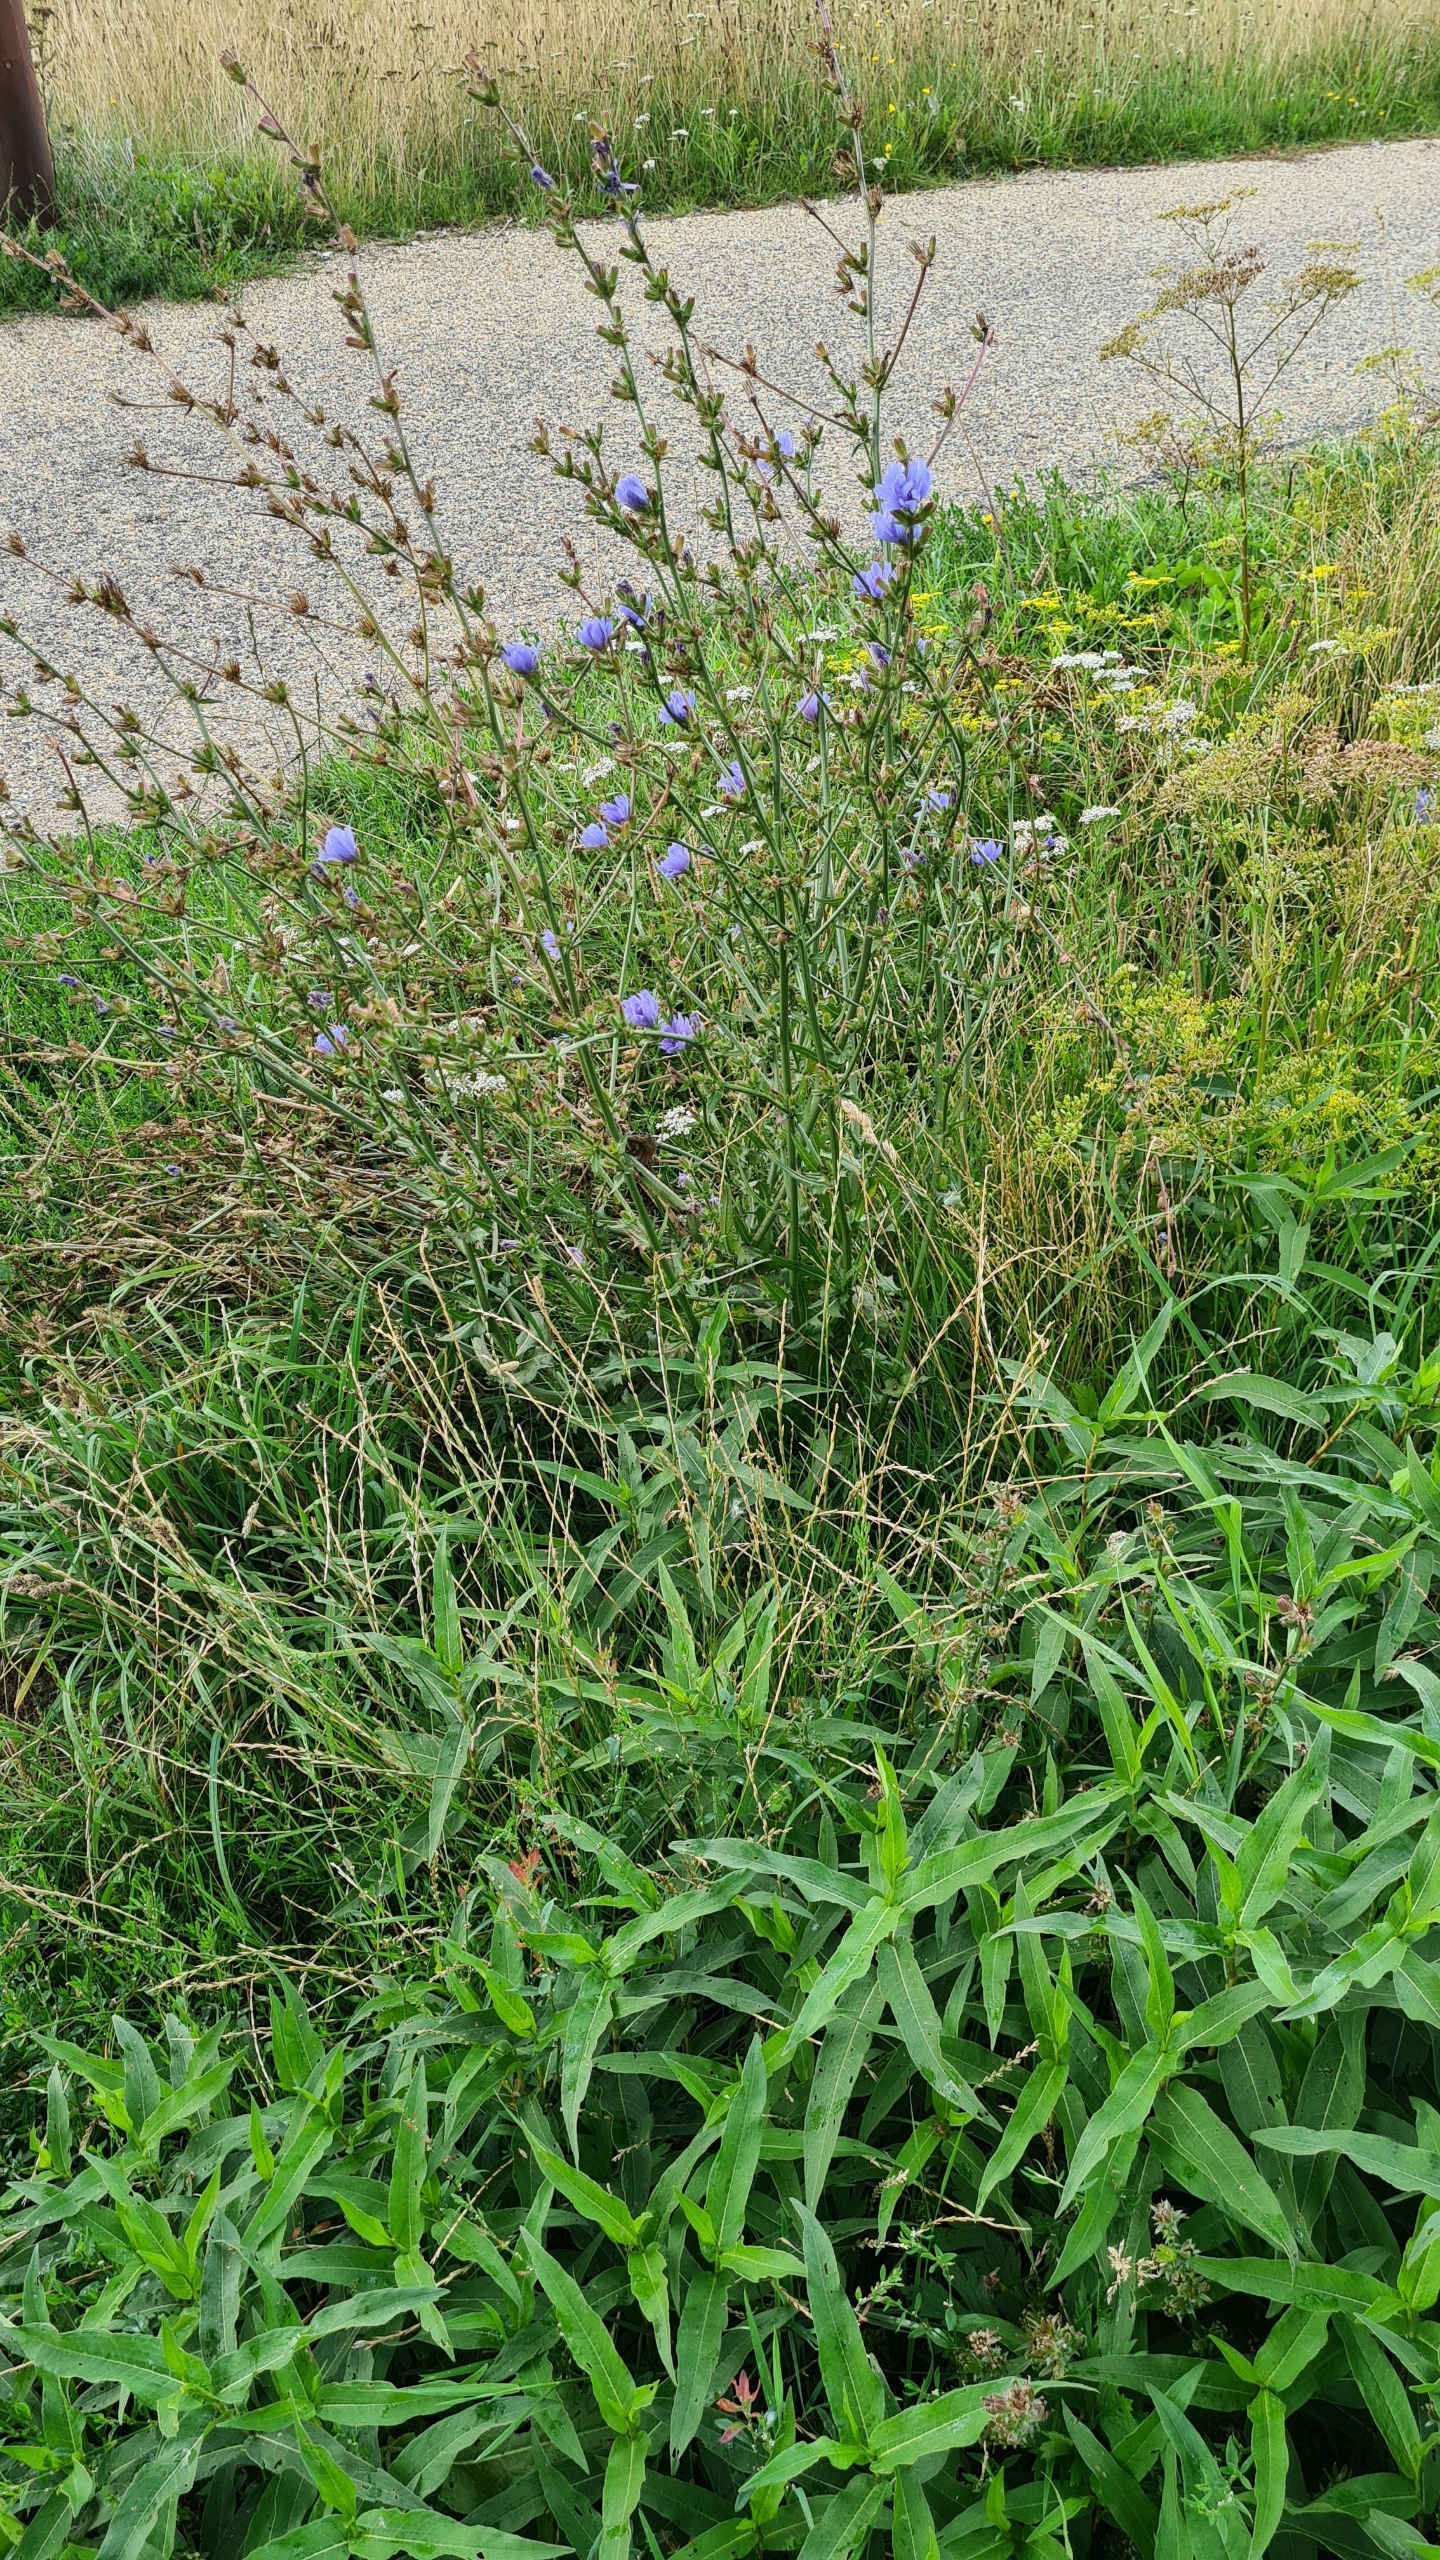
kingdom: Plantae
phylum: Tracheophyta
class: Magnoliopsida
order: Asterales
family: Asteraceae
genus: Cichorium
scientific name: Cichorium intybus
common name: Cikorie
